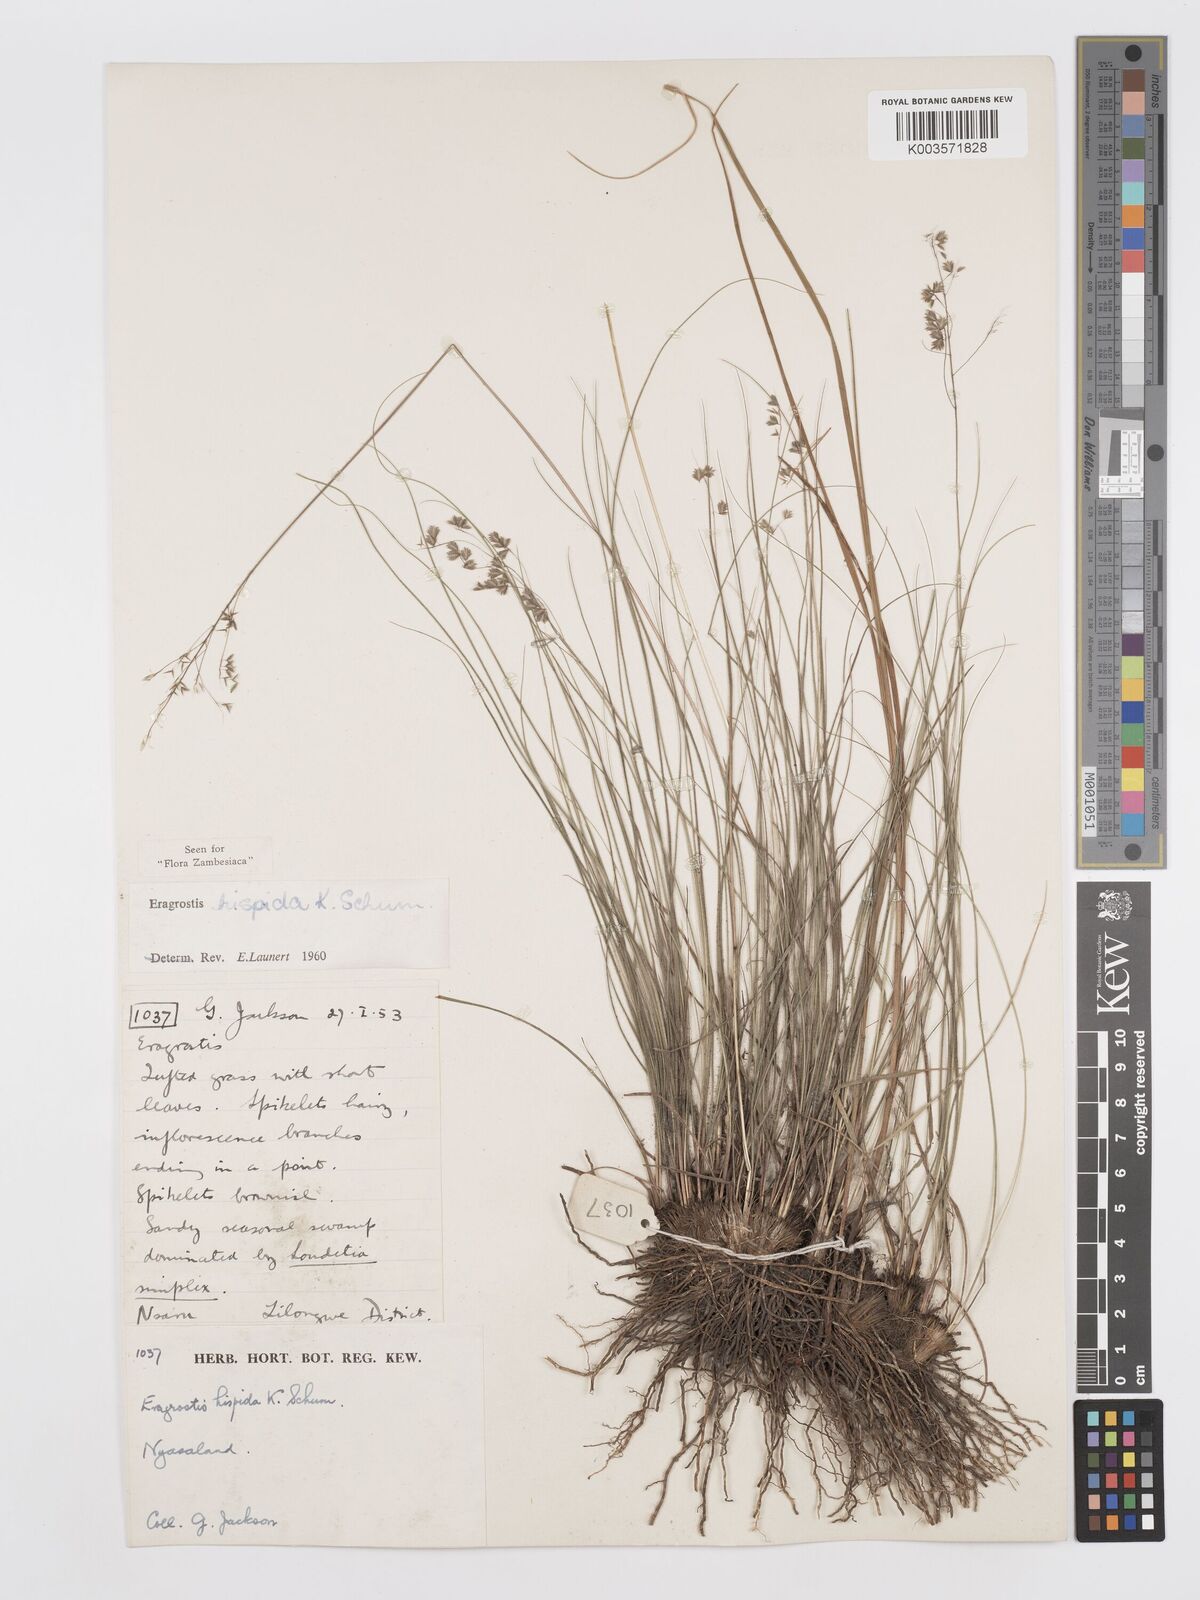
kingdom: Plantae
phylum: Tracheophyta
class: Liliopsida
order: Poales
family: Poaceae
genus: Eragrostis
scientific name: Eragrostis hispida
